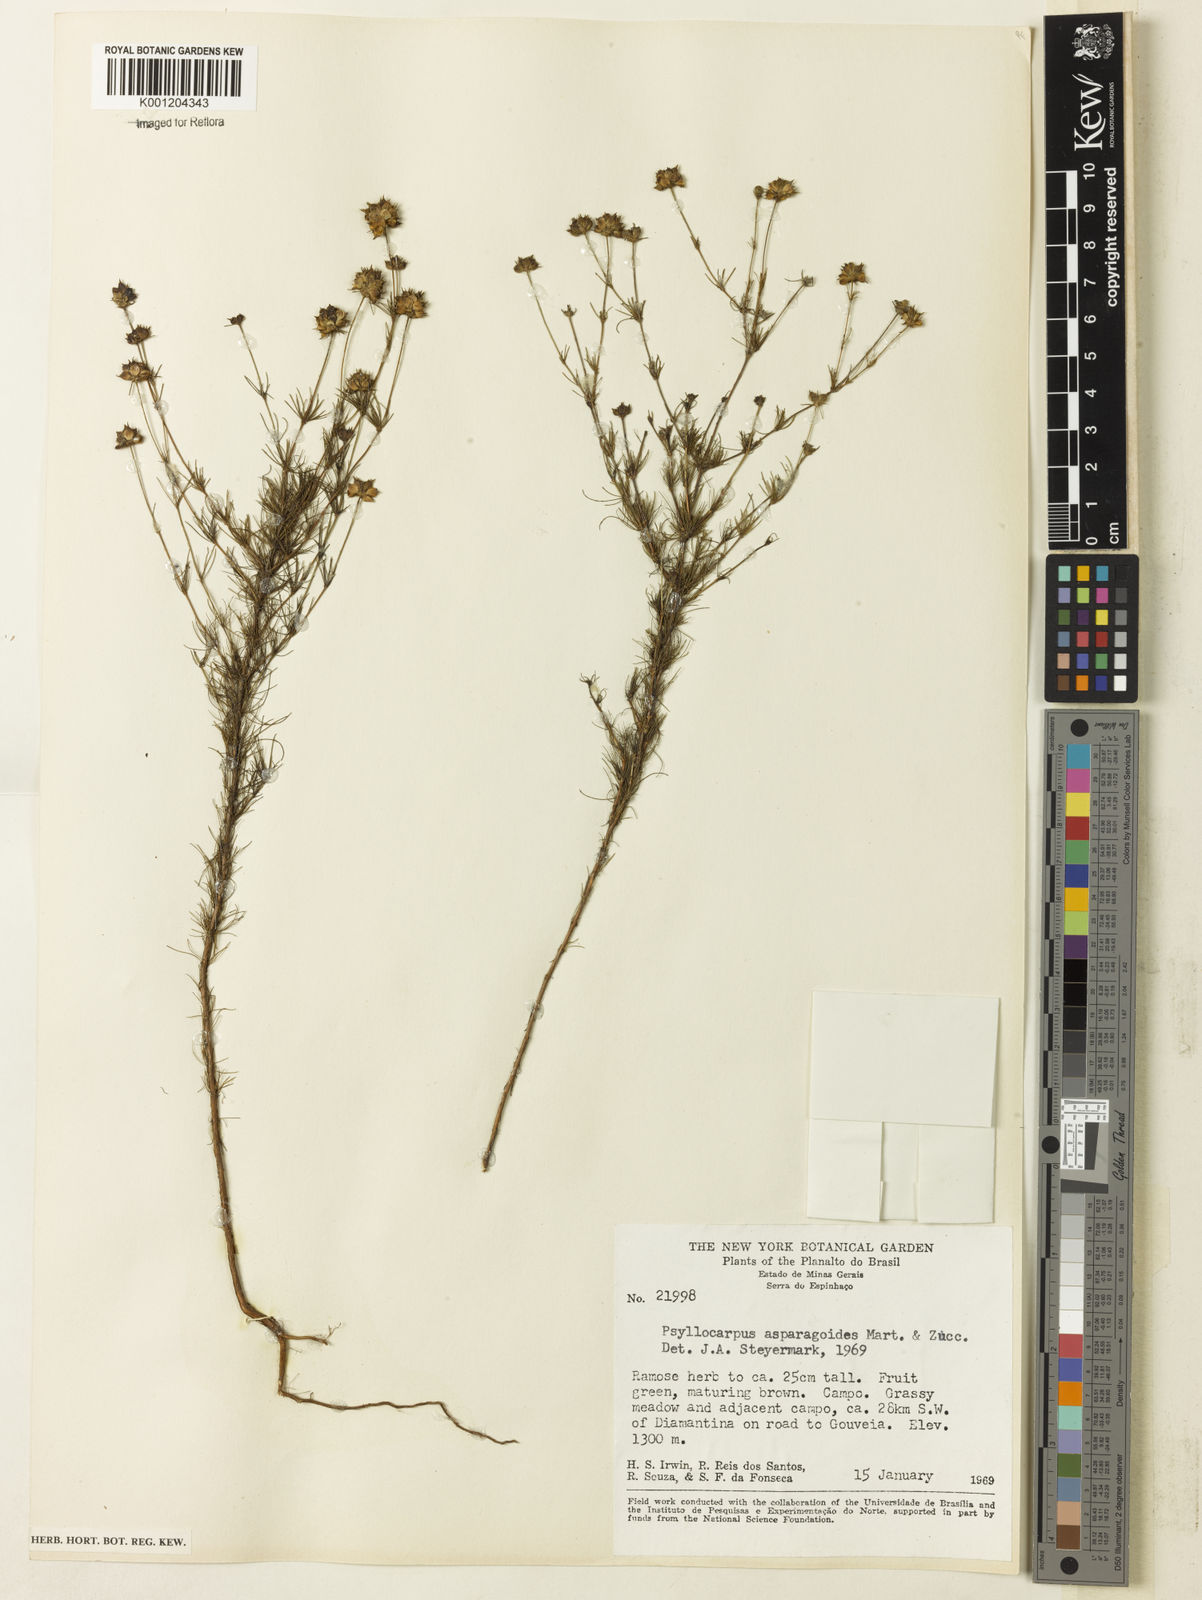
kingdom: Plantae
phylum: Tracheophyta
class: Magnoliopsida
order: Gentianales
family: Rubiaceae
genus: Psyllocarpus
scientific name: Psyllocarpus asparagoides
